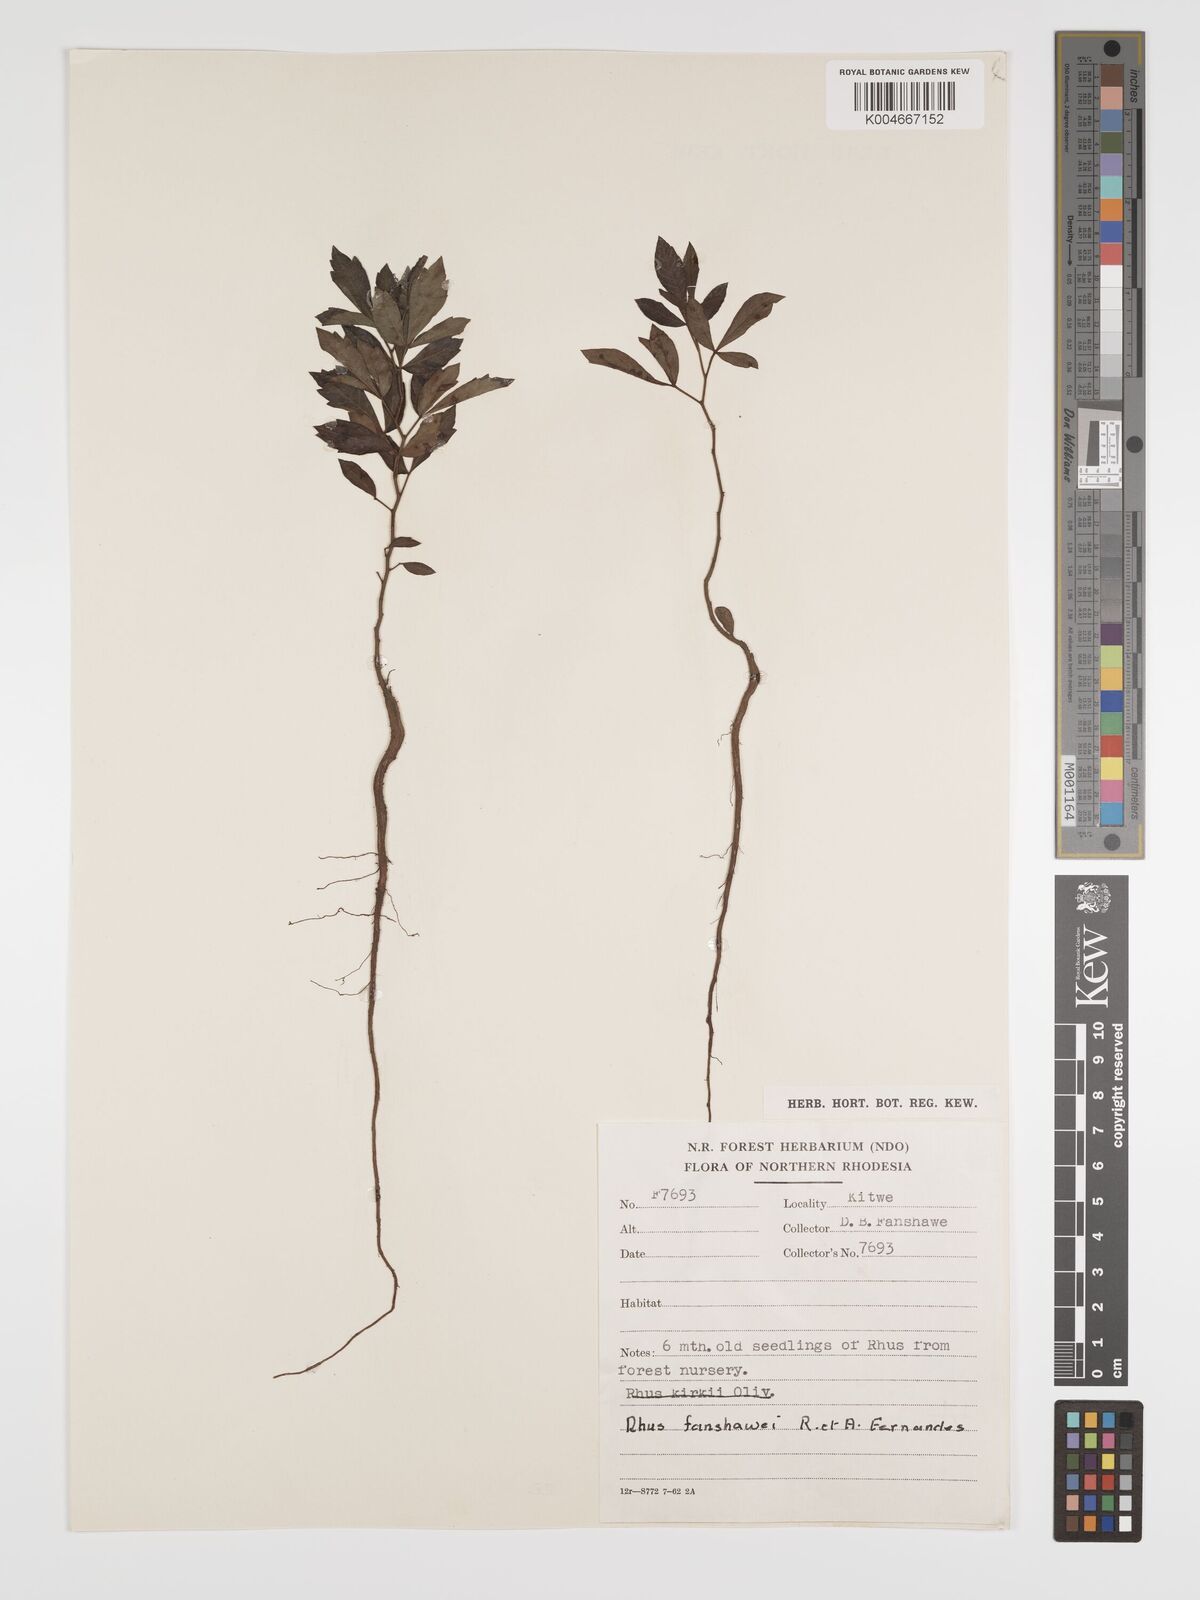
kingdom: Plantae
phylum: Tracheophyta
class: Magnoliopsida
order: Sapindales
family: Anacardiaceae
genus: Searsia
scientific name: Searsia magalismontana
